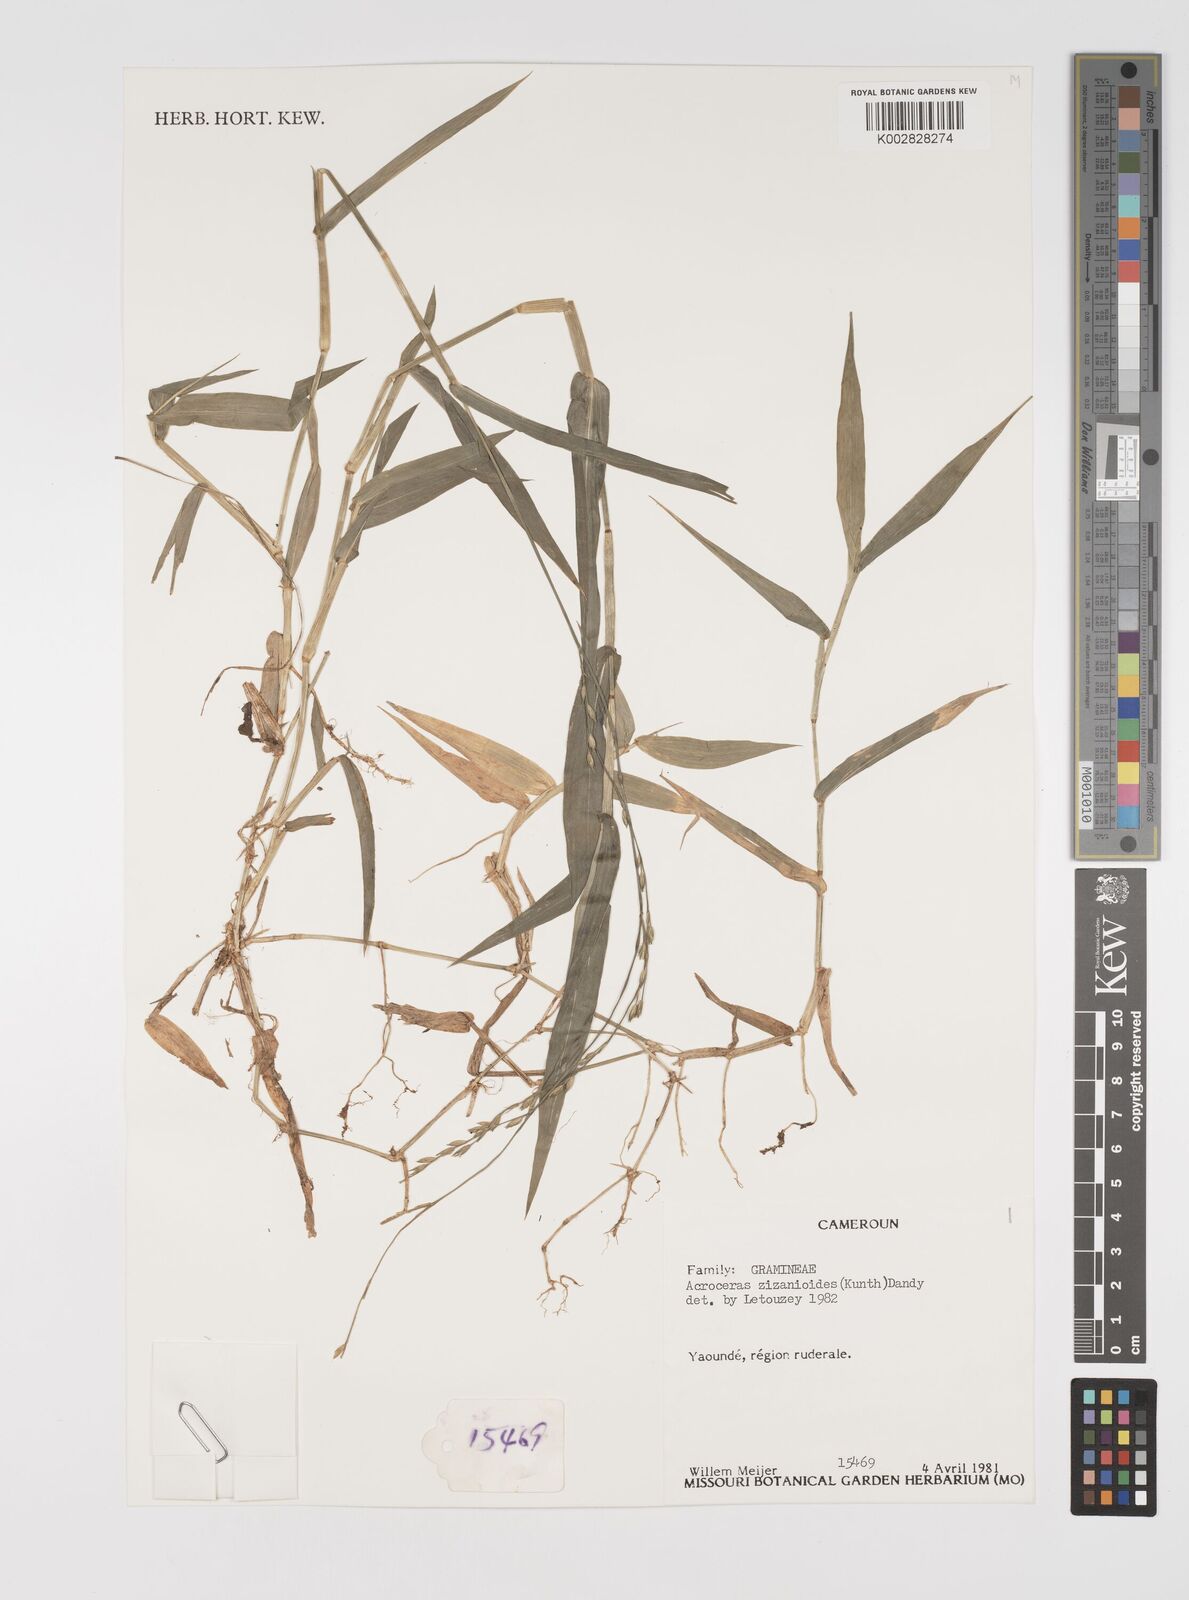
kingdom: Plantae
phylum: Tracheophyta
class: Liliopsida
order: Poales
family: Poaceae
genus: Acroceras
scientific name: Acroceras zizanioides
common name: Oat grass
